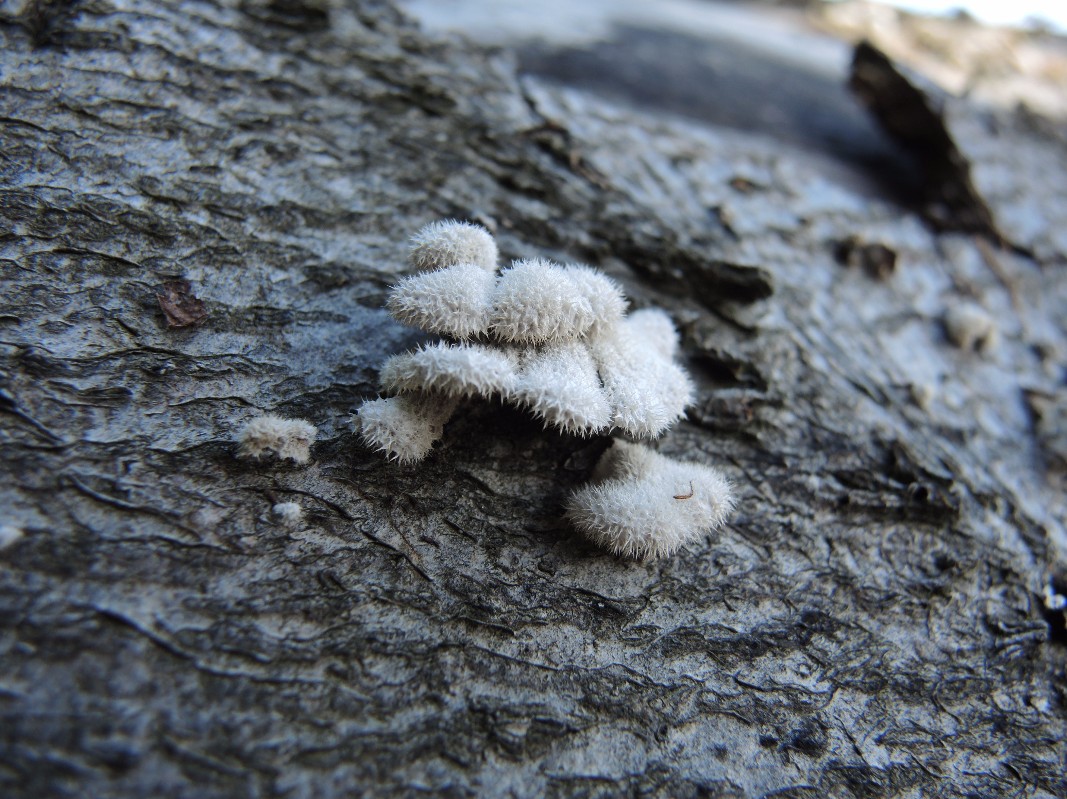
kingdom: Fungi
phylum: Basidiomycota
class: Agaricomycetes
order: Agaricales
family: Schizophyllaceae
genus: Schizophyllum
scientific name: Schizophyllum commune
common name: kløvblad
